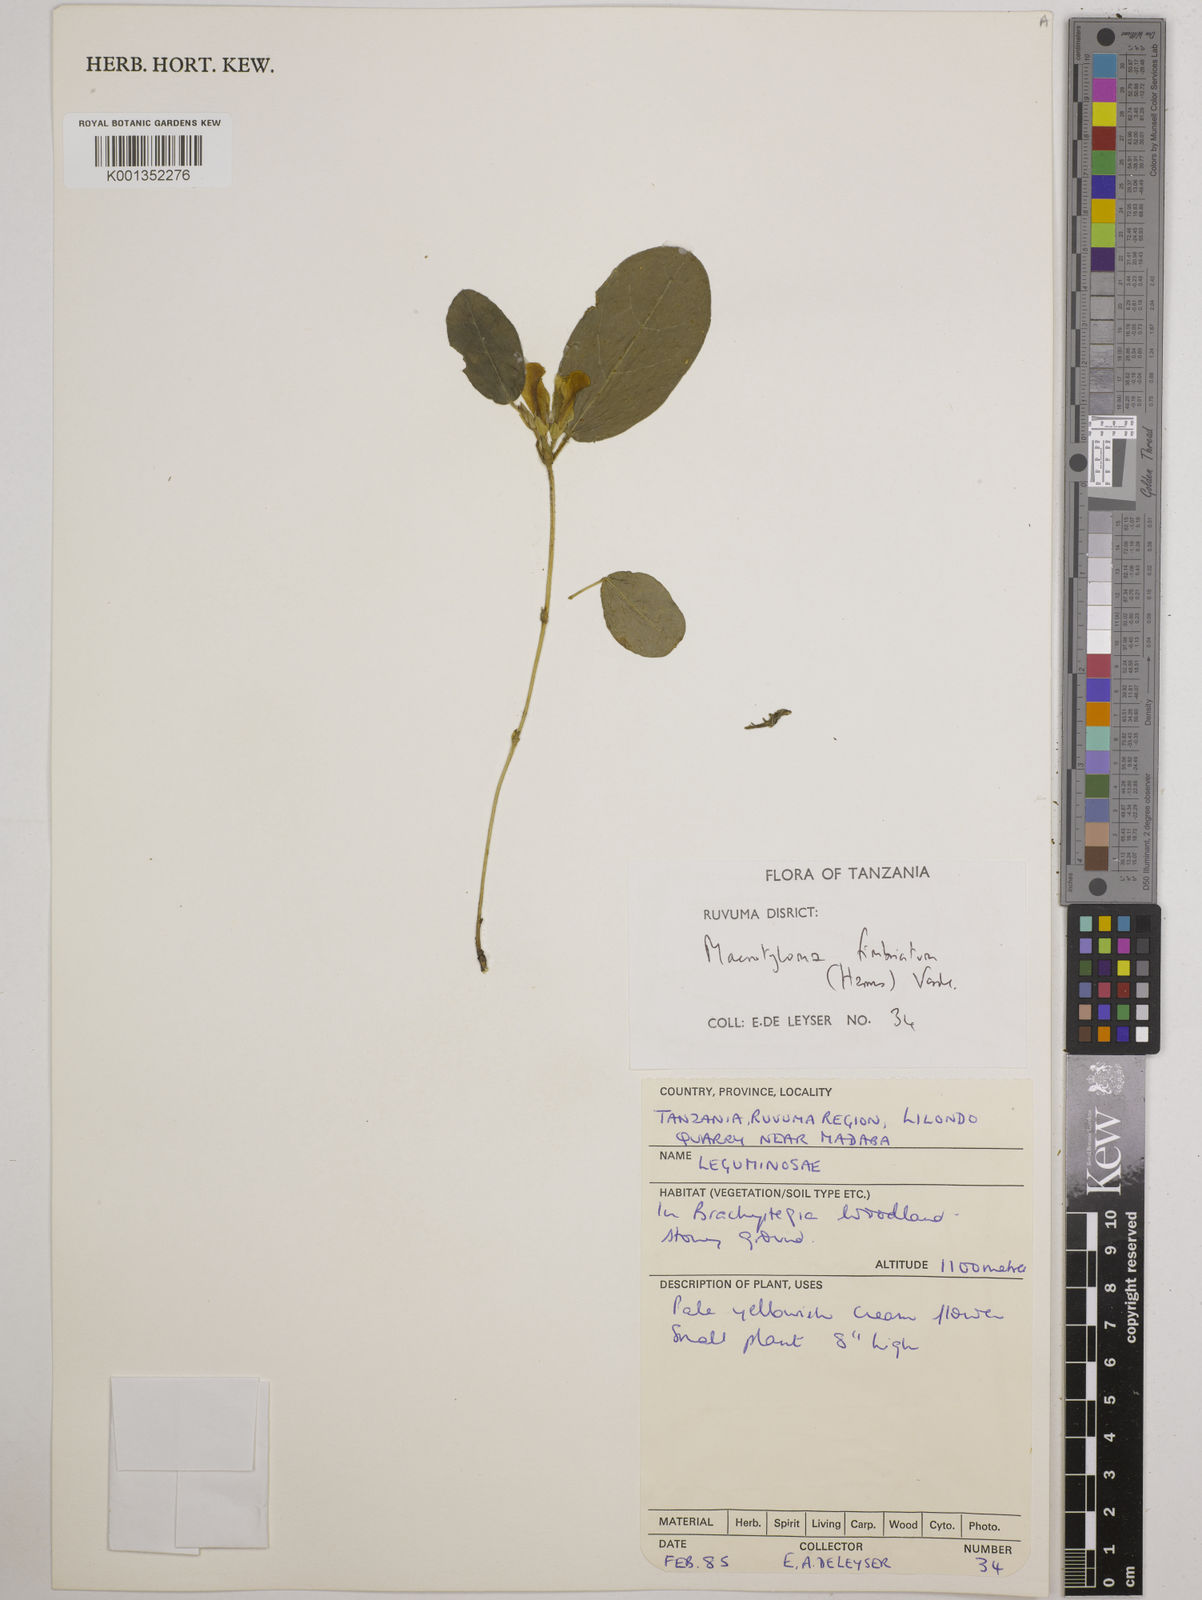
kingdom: Plantae
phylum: Tracheophyta
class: Magnoliopsida
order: Fabales
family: Fabaceae
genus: Macrotyloma
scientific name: Macrotyloma fimbriatum
